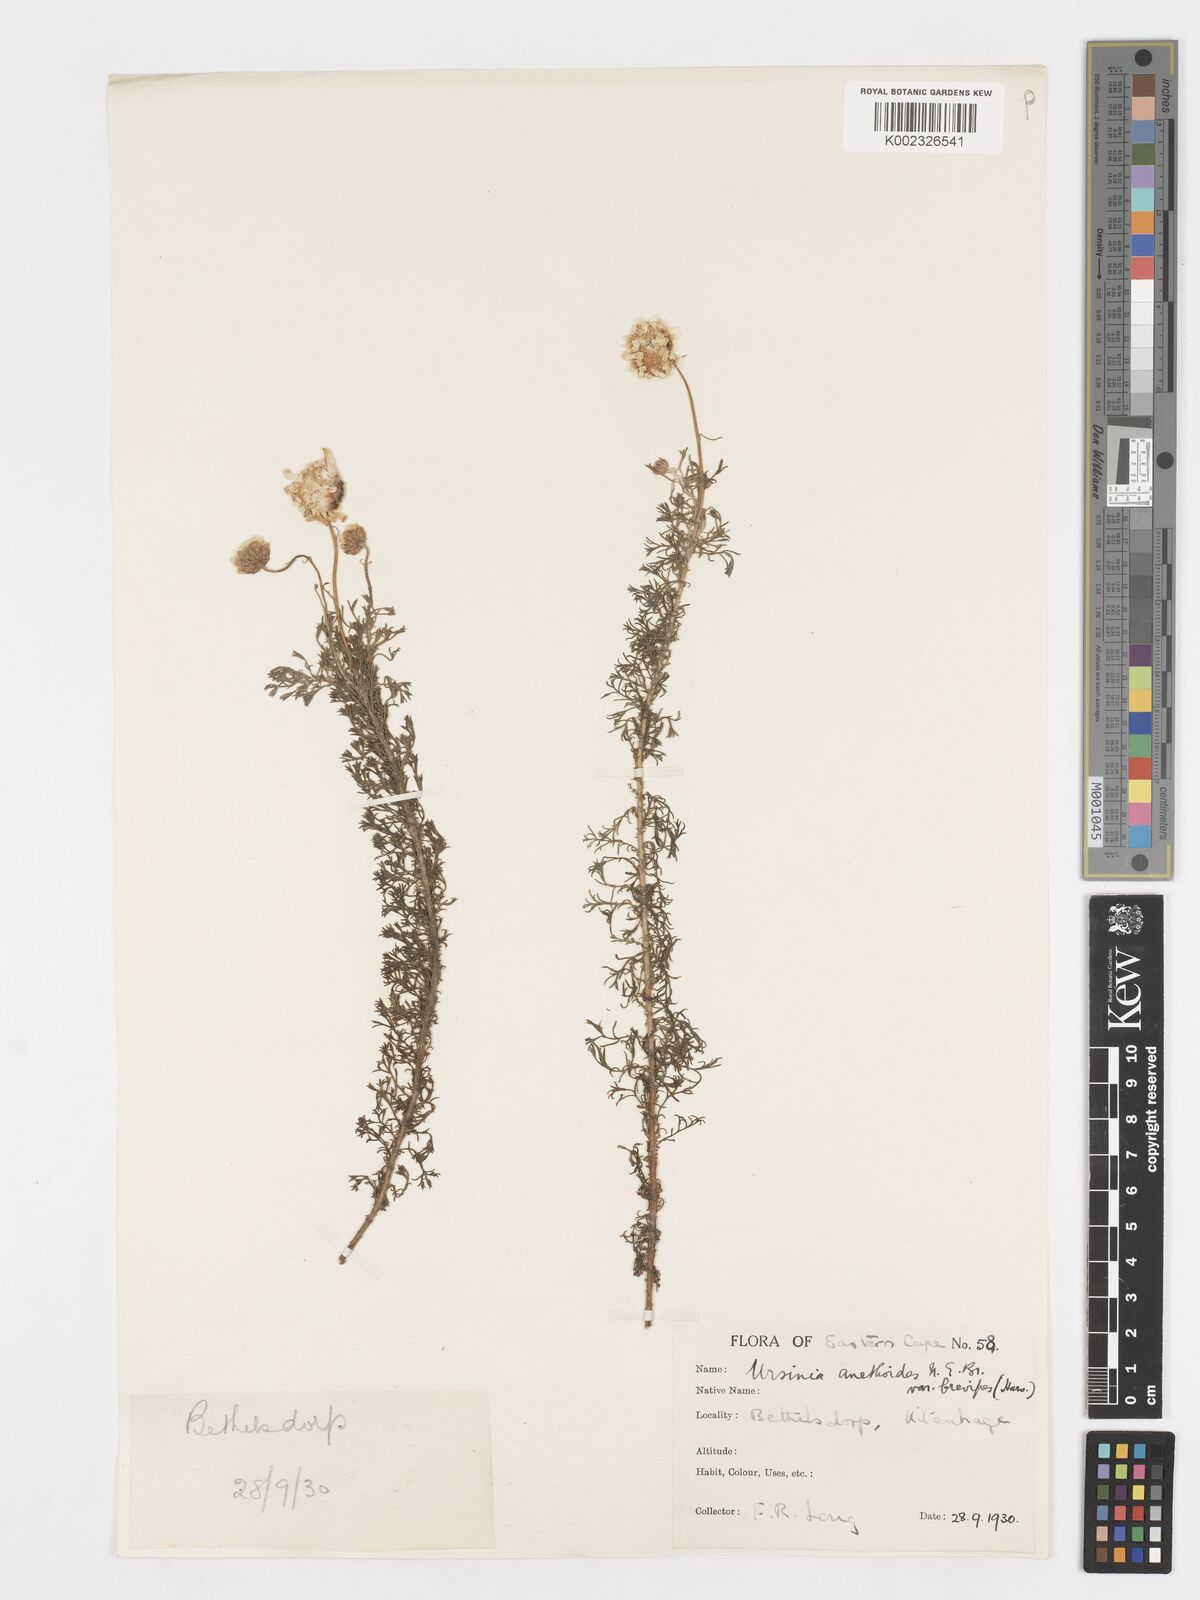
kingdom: Plantae
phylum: Tracheophyta
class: Magnoliopsida
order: Asterales
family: Asteraceae
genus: Ursinia
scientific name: Ursinia anethoides
